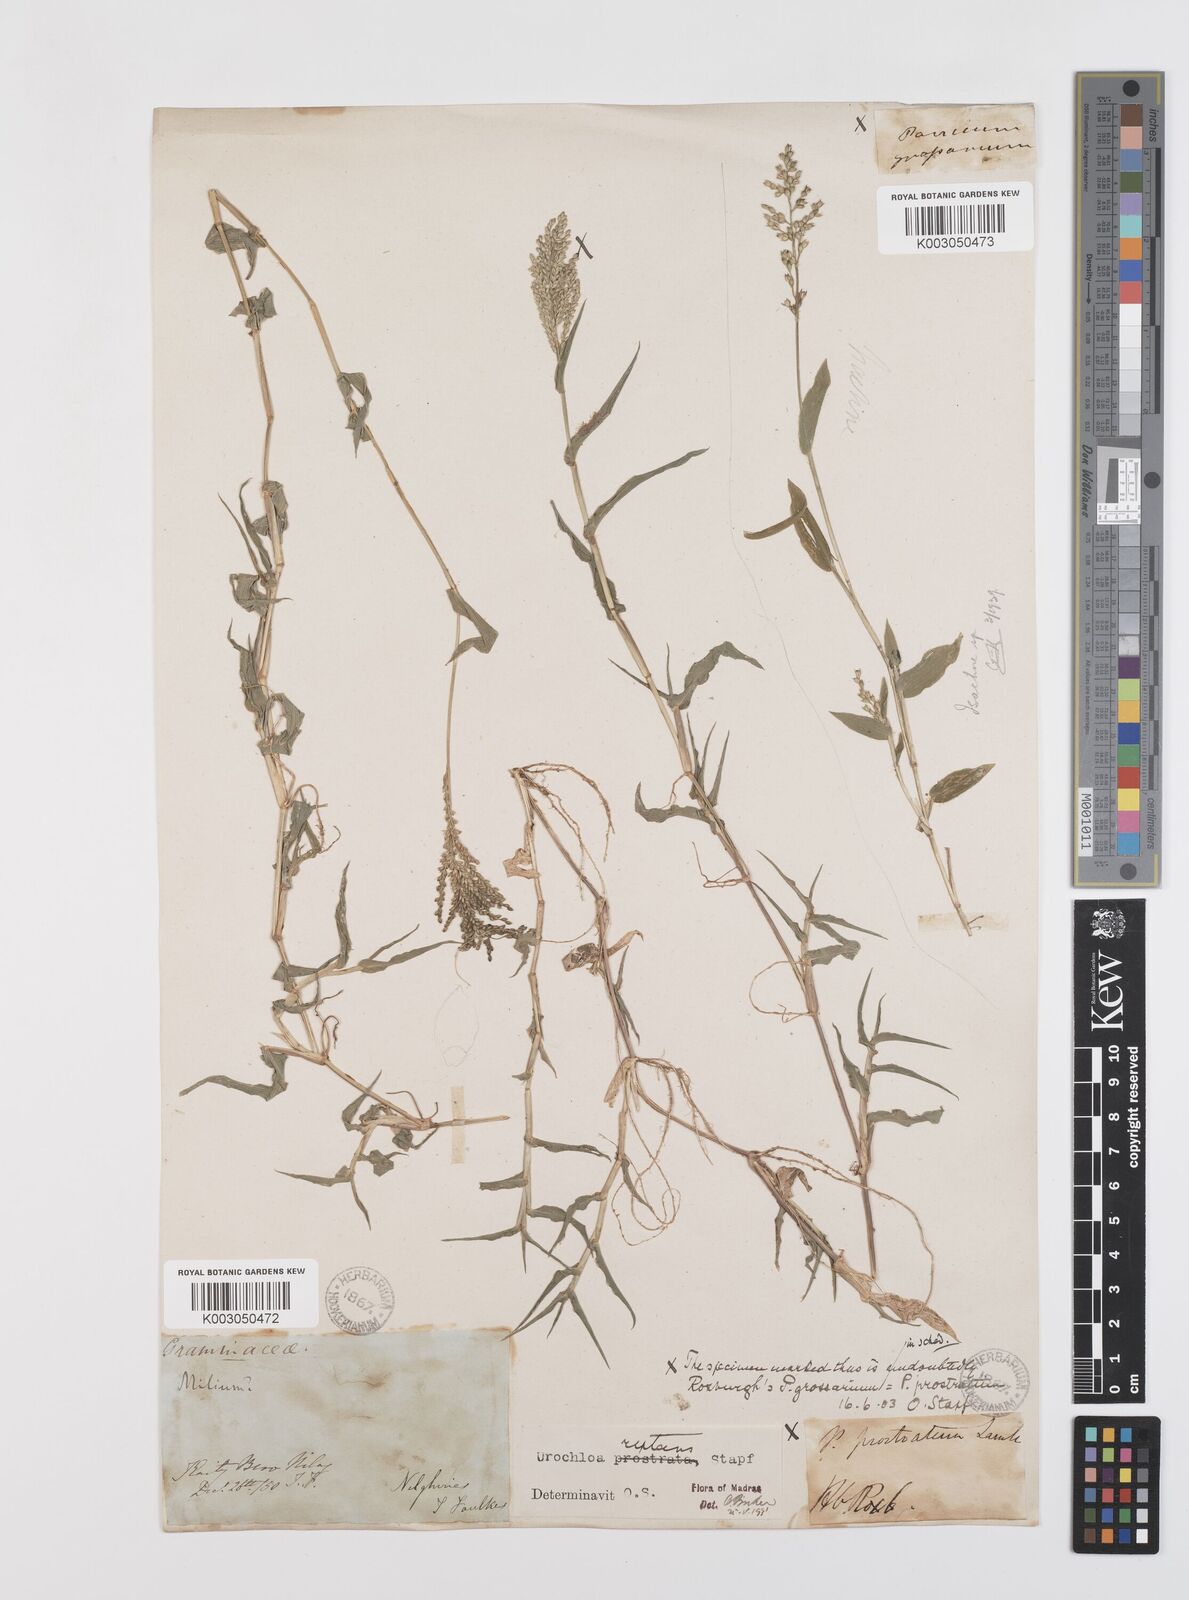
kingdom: Plantae
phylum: Tracheophyta
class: Liliopsida
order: Poales
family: Poaceae
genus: Urochloa
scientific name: Urochloa reptans
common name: Sprawling signalgrass
